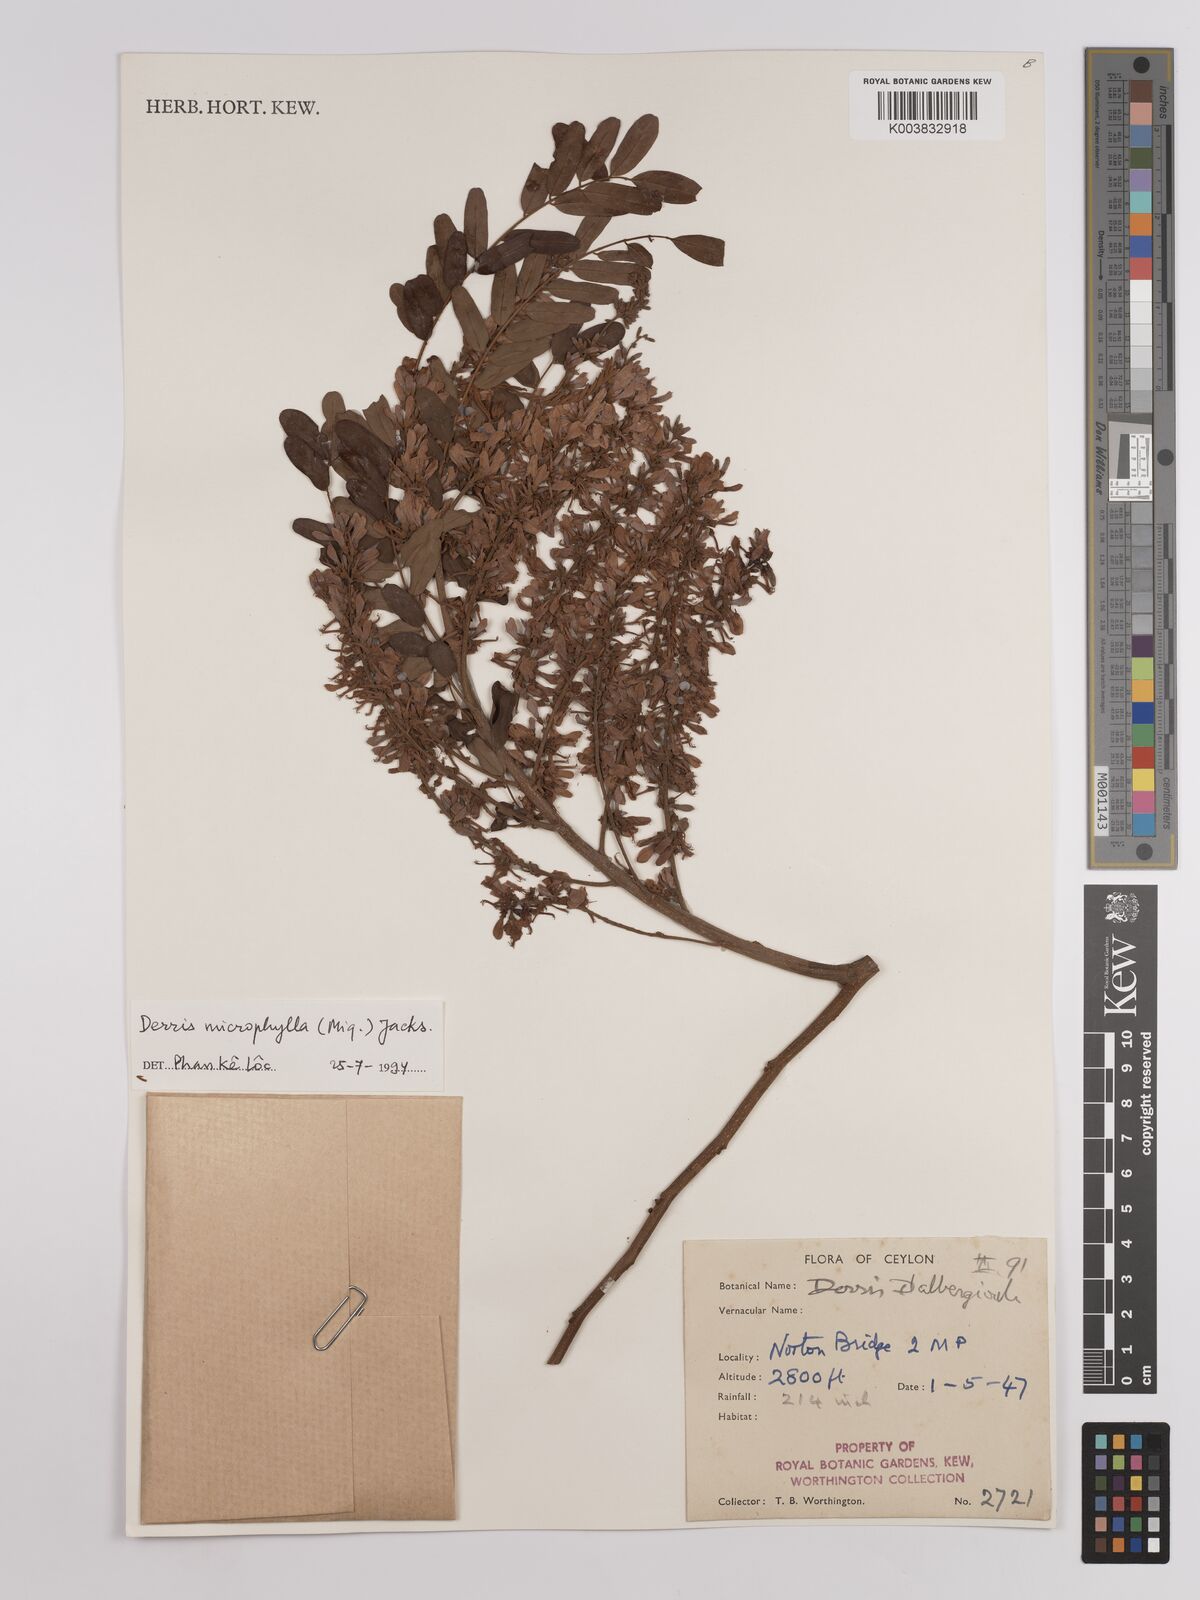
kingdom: Plantae
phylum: Tracheophyta
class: Magnoliopsida
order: Fabales
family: Fabaceae
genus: Brachypterum
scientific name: Brachypterum microphyllum
